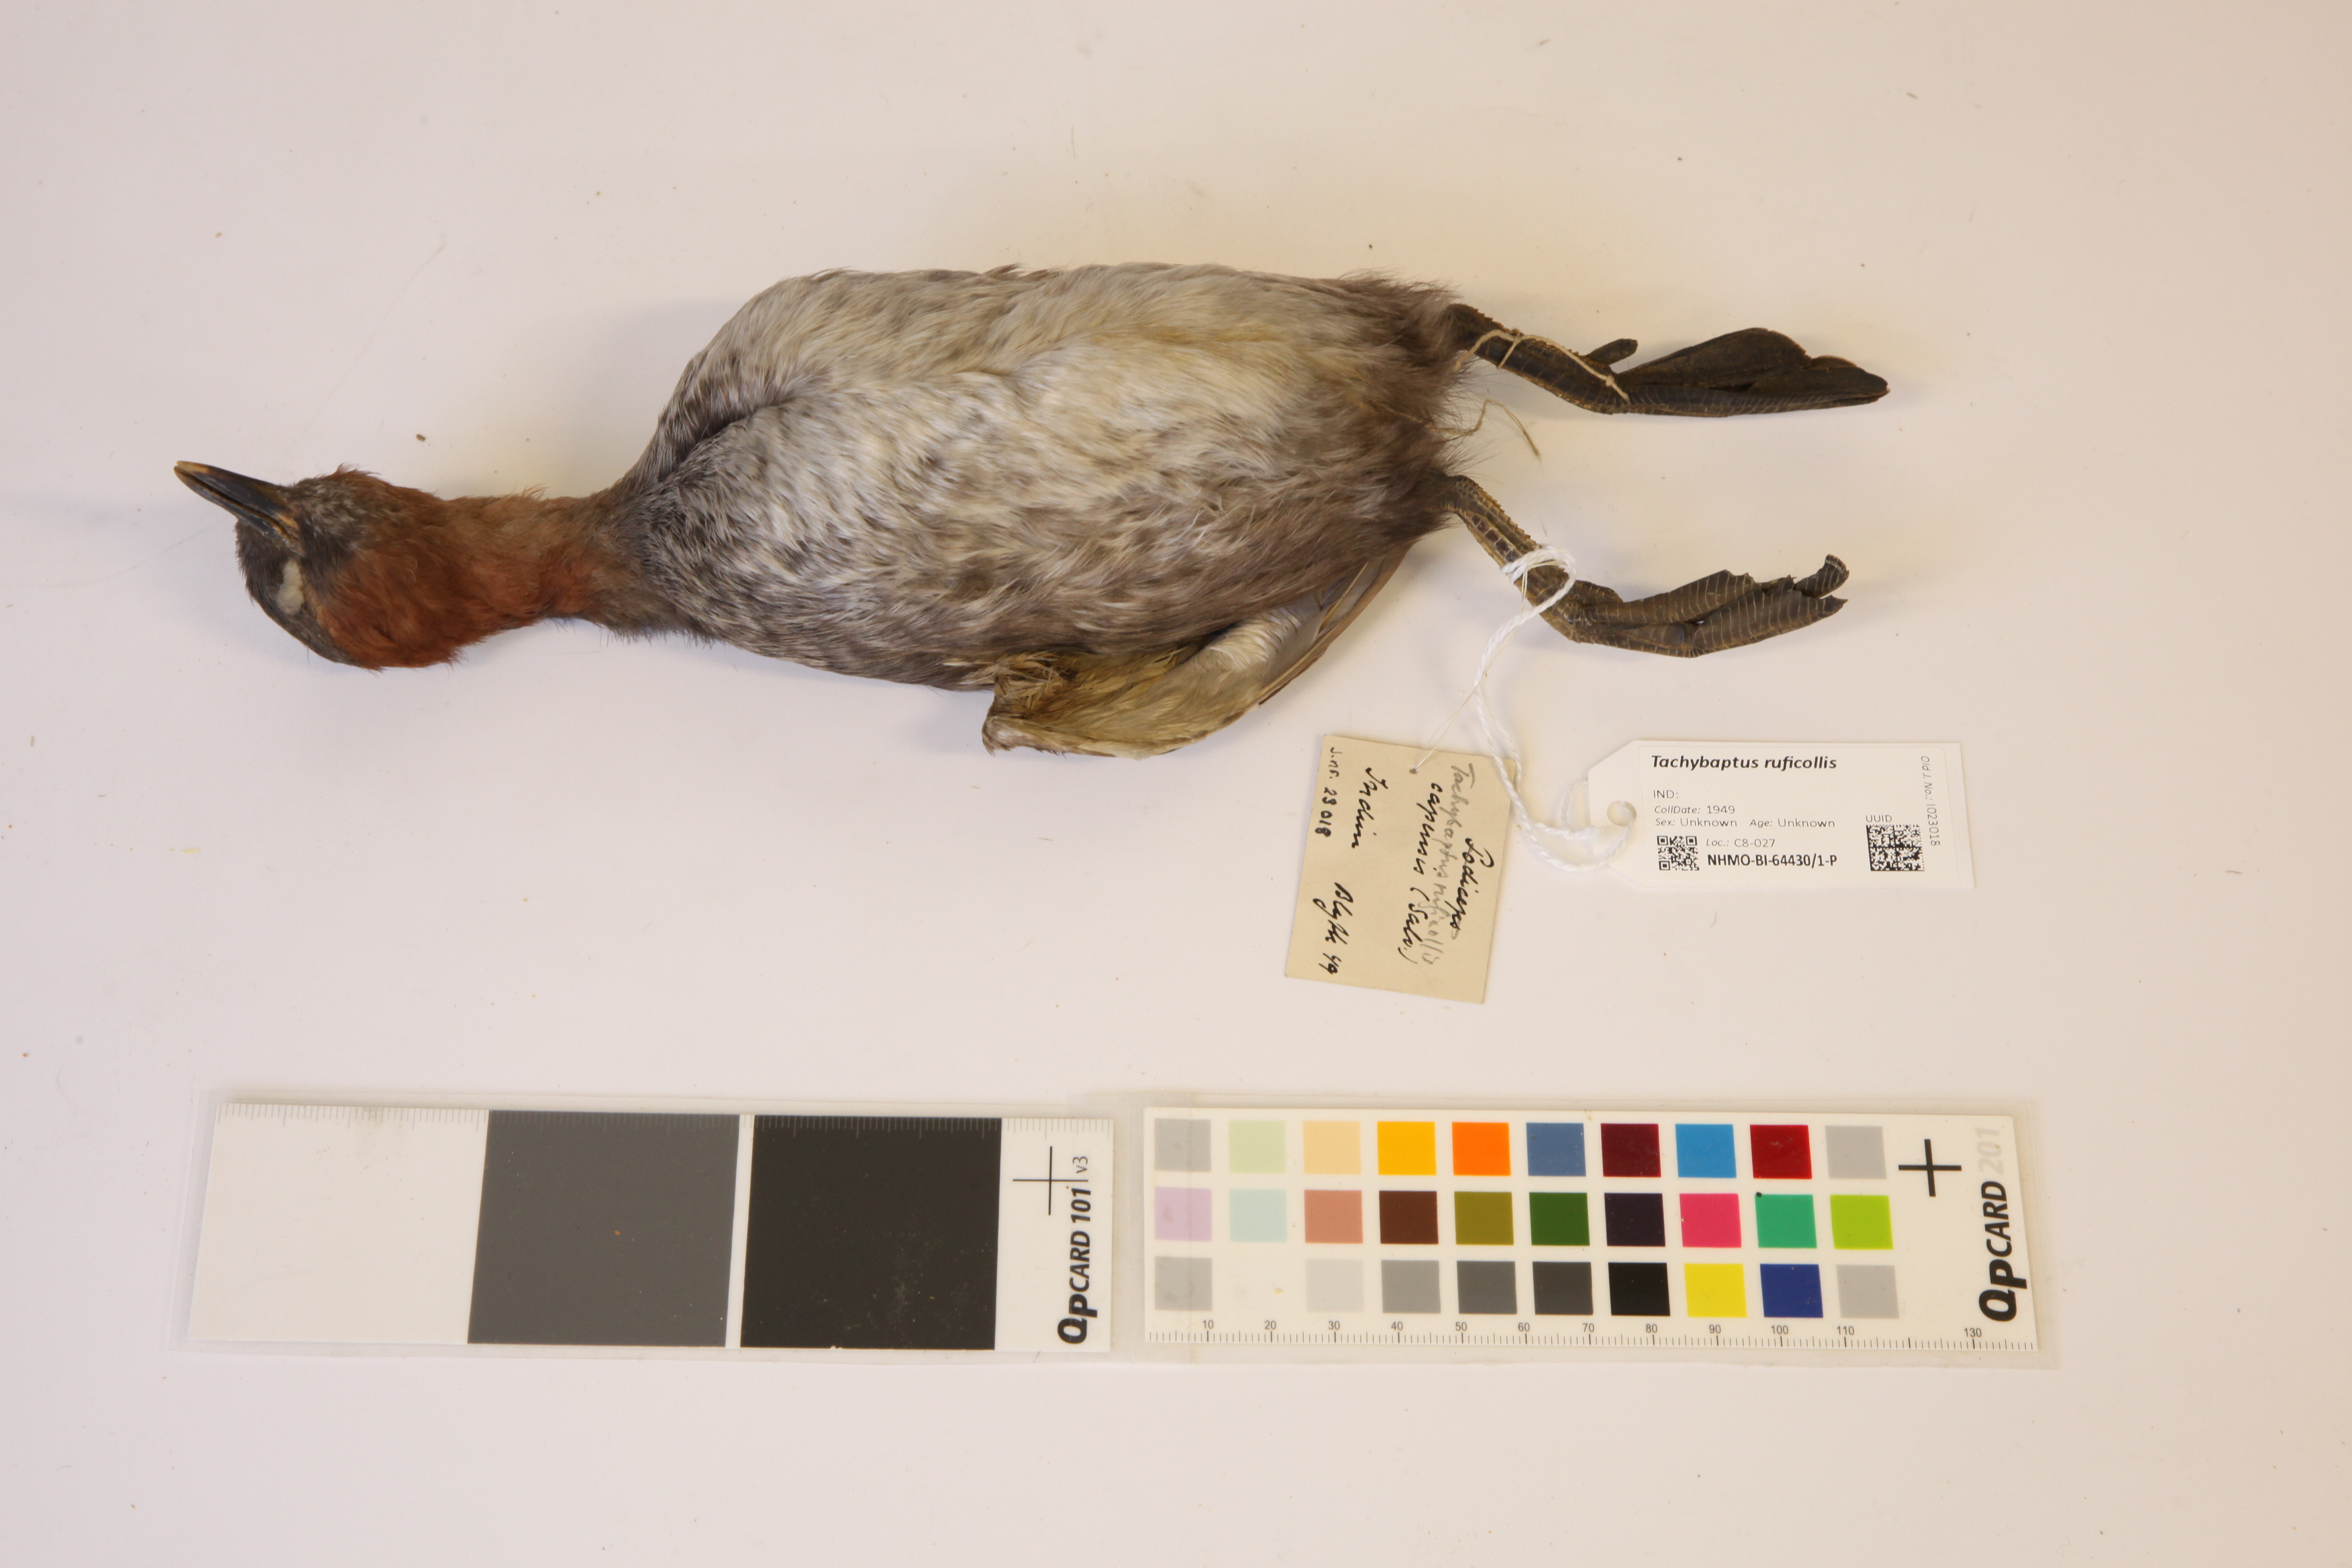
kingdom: Animalia
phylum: Chordata
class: Aves
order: Podicipediformes
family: Podicipedidae
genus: Tachybaptus
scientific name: Tachybaptus ruficollis
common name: Little grebe
